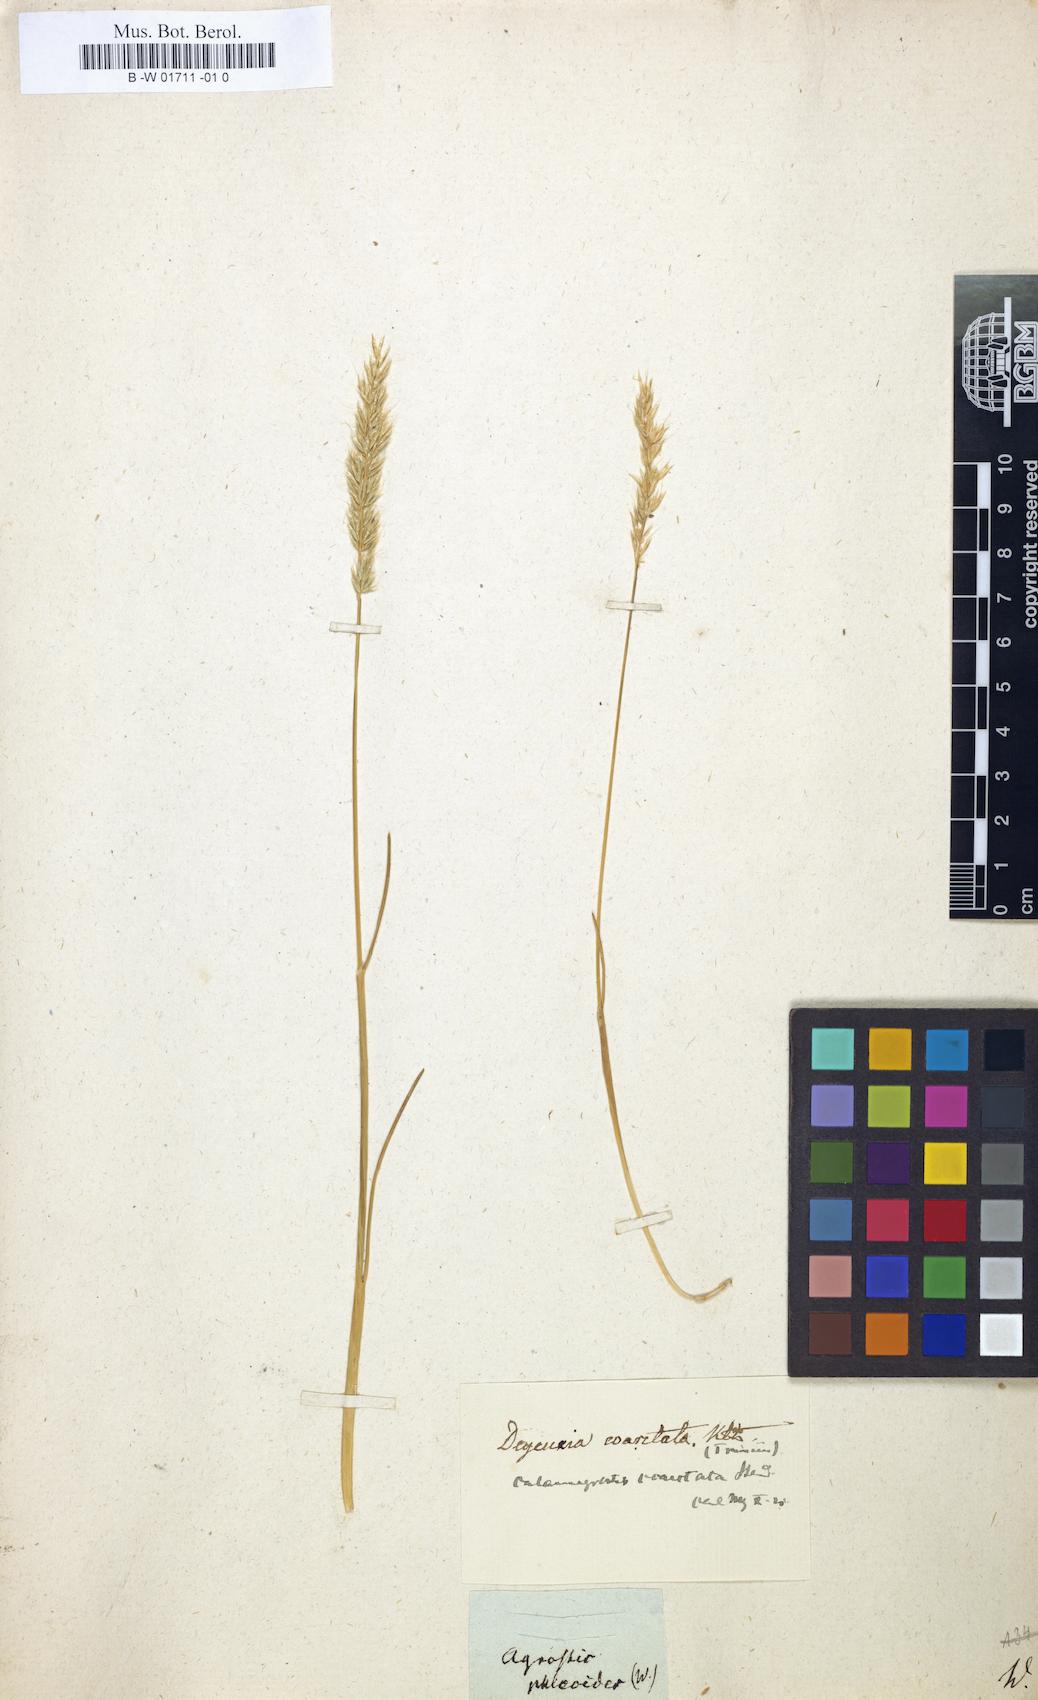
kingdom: Plantae
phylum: Tracheophyta
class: Liliopsida
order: Poales
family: Poaceae
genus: Gastridium
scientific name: Gastridium phleoides
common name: Nit grass
